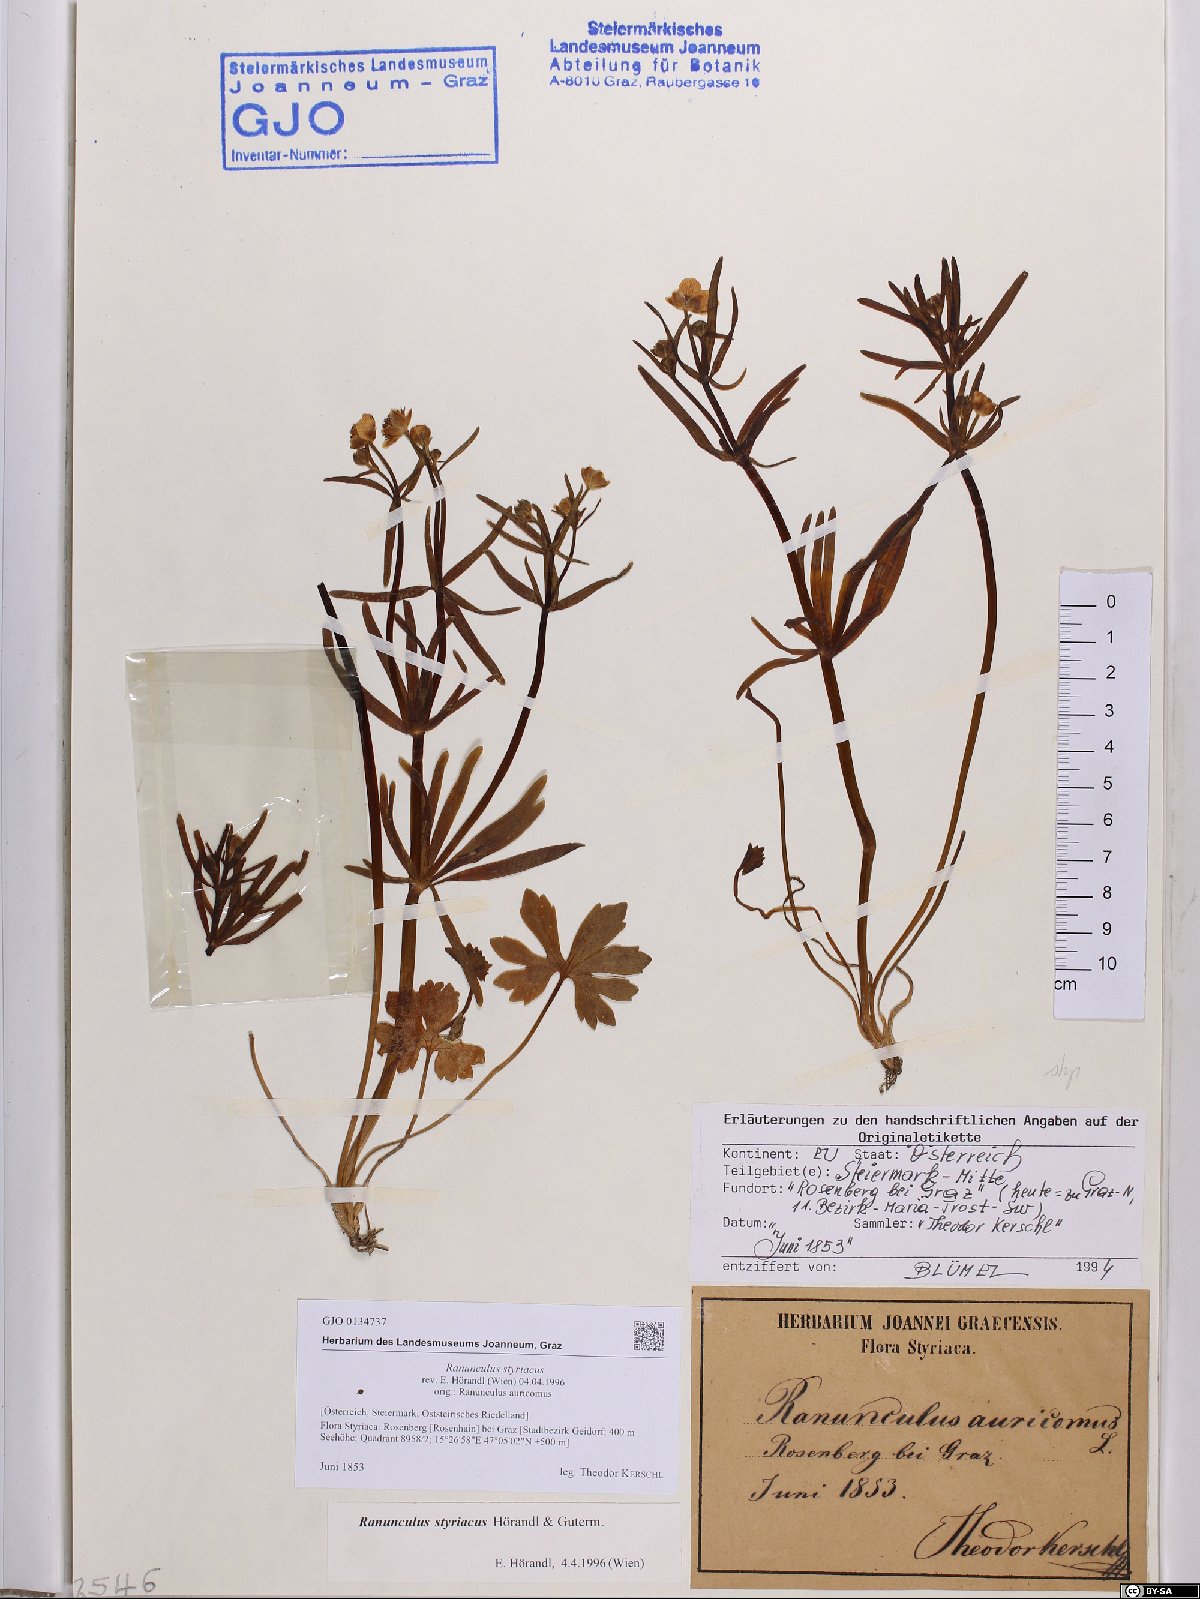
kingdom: Plantae
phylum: Tracheophyta
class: Magnoliopsida
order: Ranunculales
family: Ranunculaceae
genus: Ranunculus
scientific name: Ranunculus styriacus
